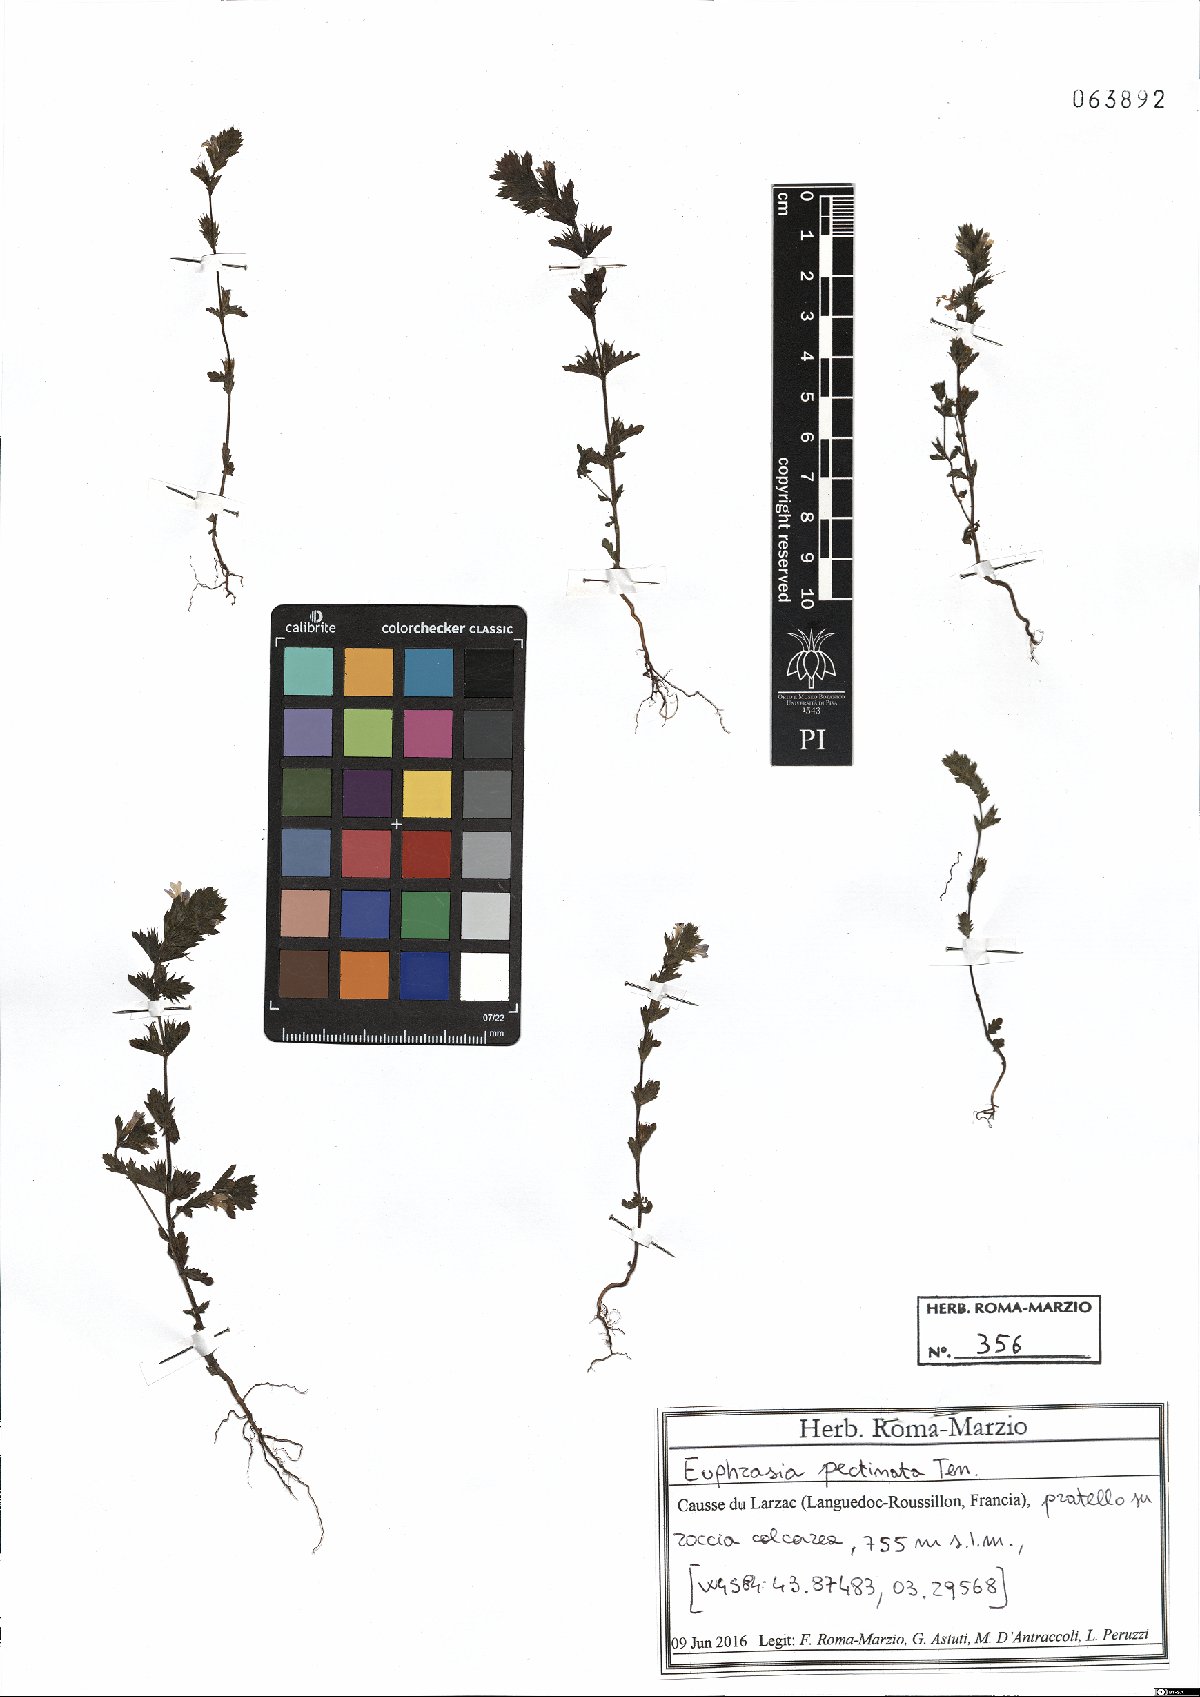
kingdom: Plantae
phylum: Tracheophyta
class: Magnoliopsida
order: Lamiales
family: Orobanchaceae
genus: Euphrasia
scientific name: Euphrasia pectinata
